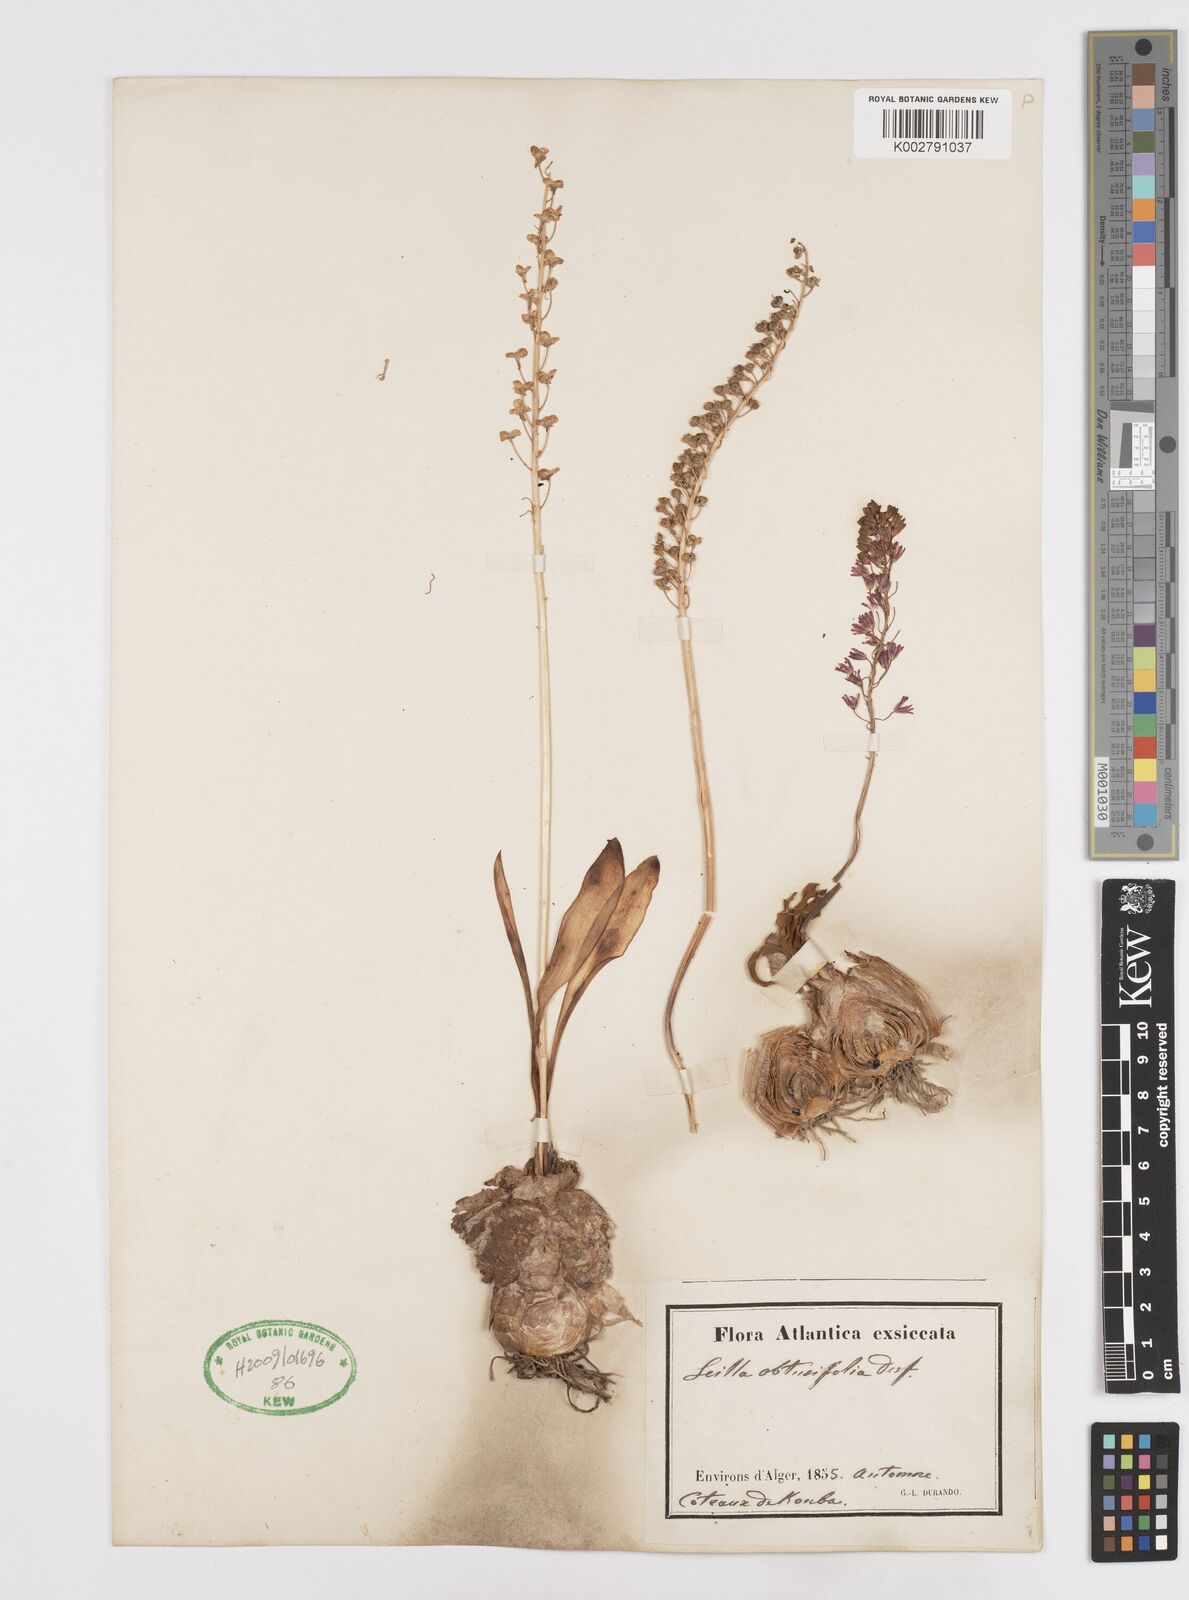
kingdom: Plantae
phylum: Tracheophyta
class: Liliopsida
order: Asparagales
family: Asparagaceae
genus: Prospero
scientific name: Prospero obtusifolium
